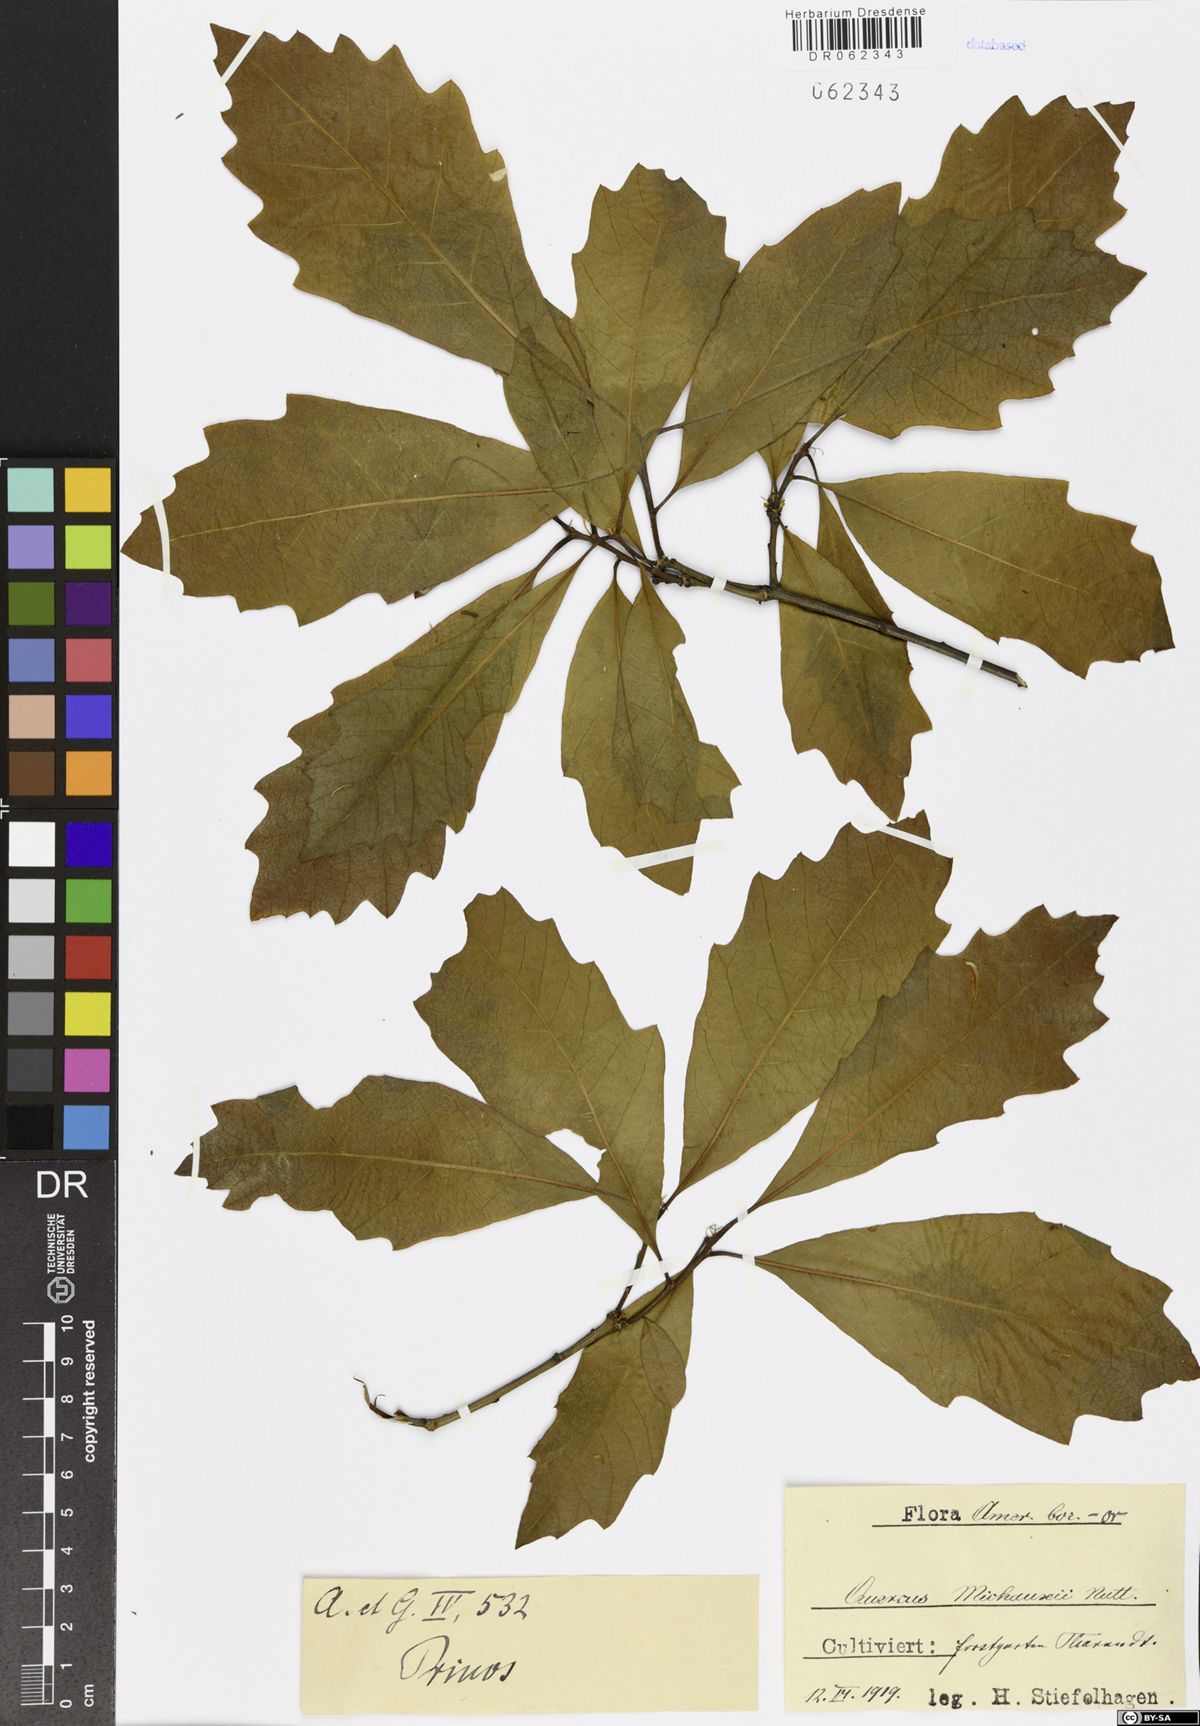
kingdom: Plantae
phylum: Tracheophyta
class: Magnoliopsida
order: Fagales
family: Fagaceae
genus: Quercus
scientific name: Quercus michauxii
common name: Swamp chestnut oak
